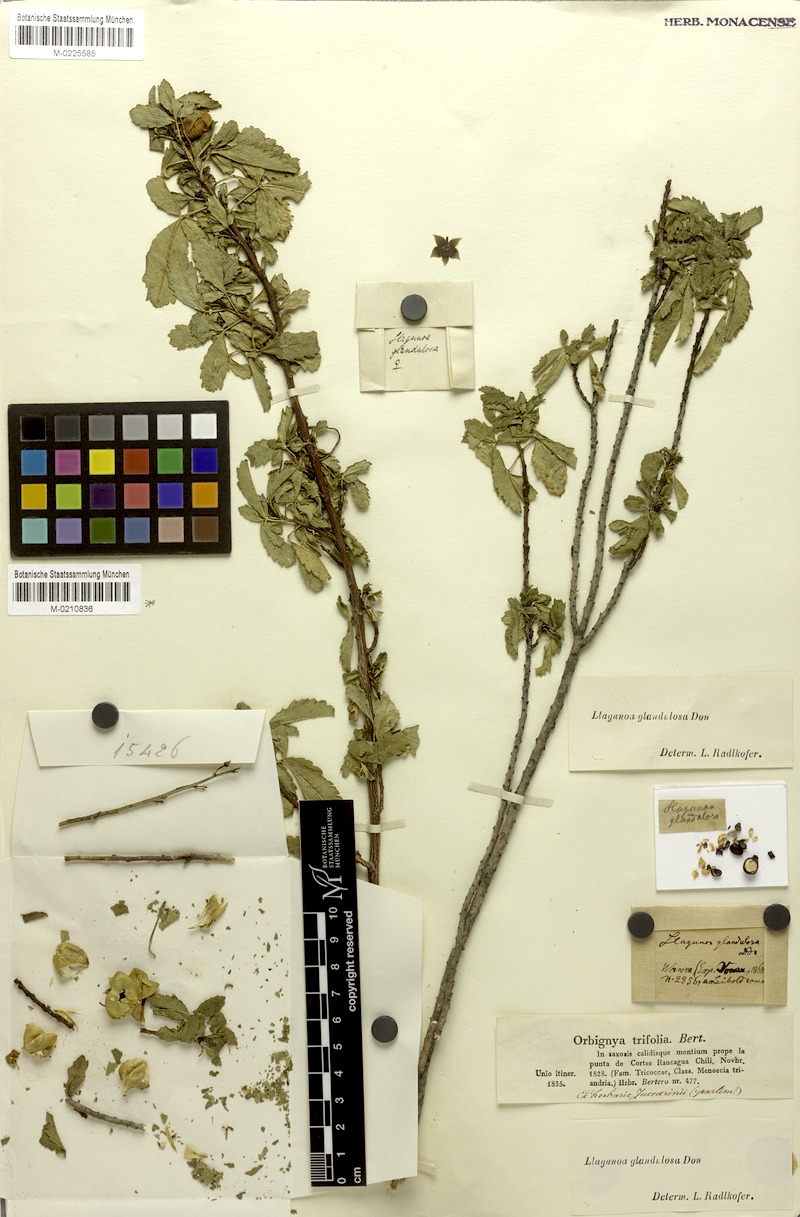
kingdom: Plantae
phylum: Tracheophyta
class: Magnoliopsida
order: Sapindales
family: Sapindaceae
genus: Llagunoa
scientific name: Llagunoa glandulosa
